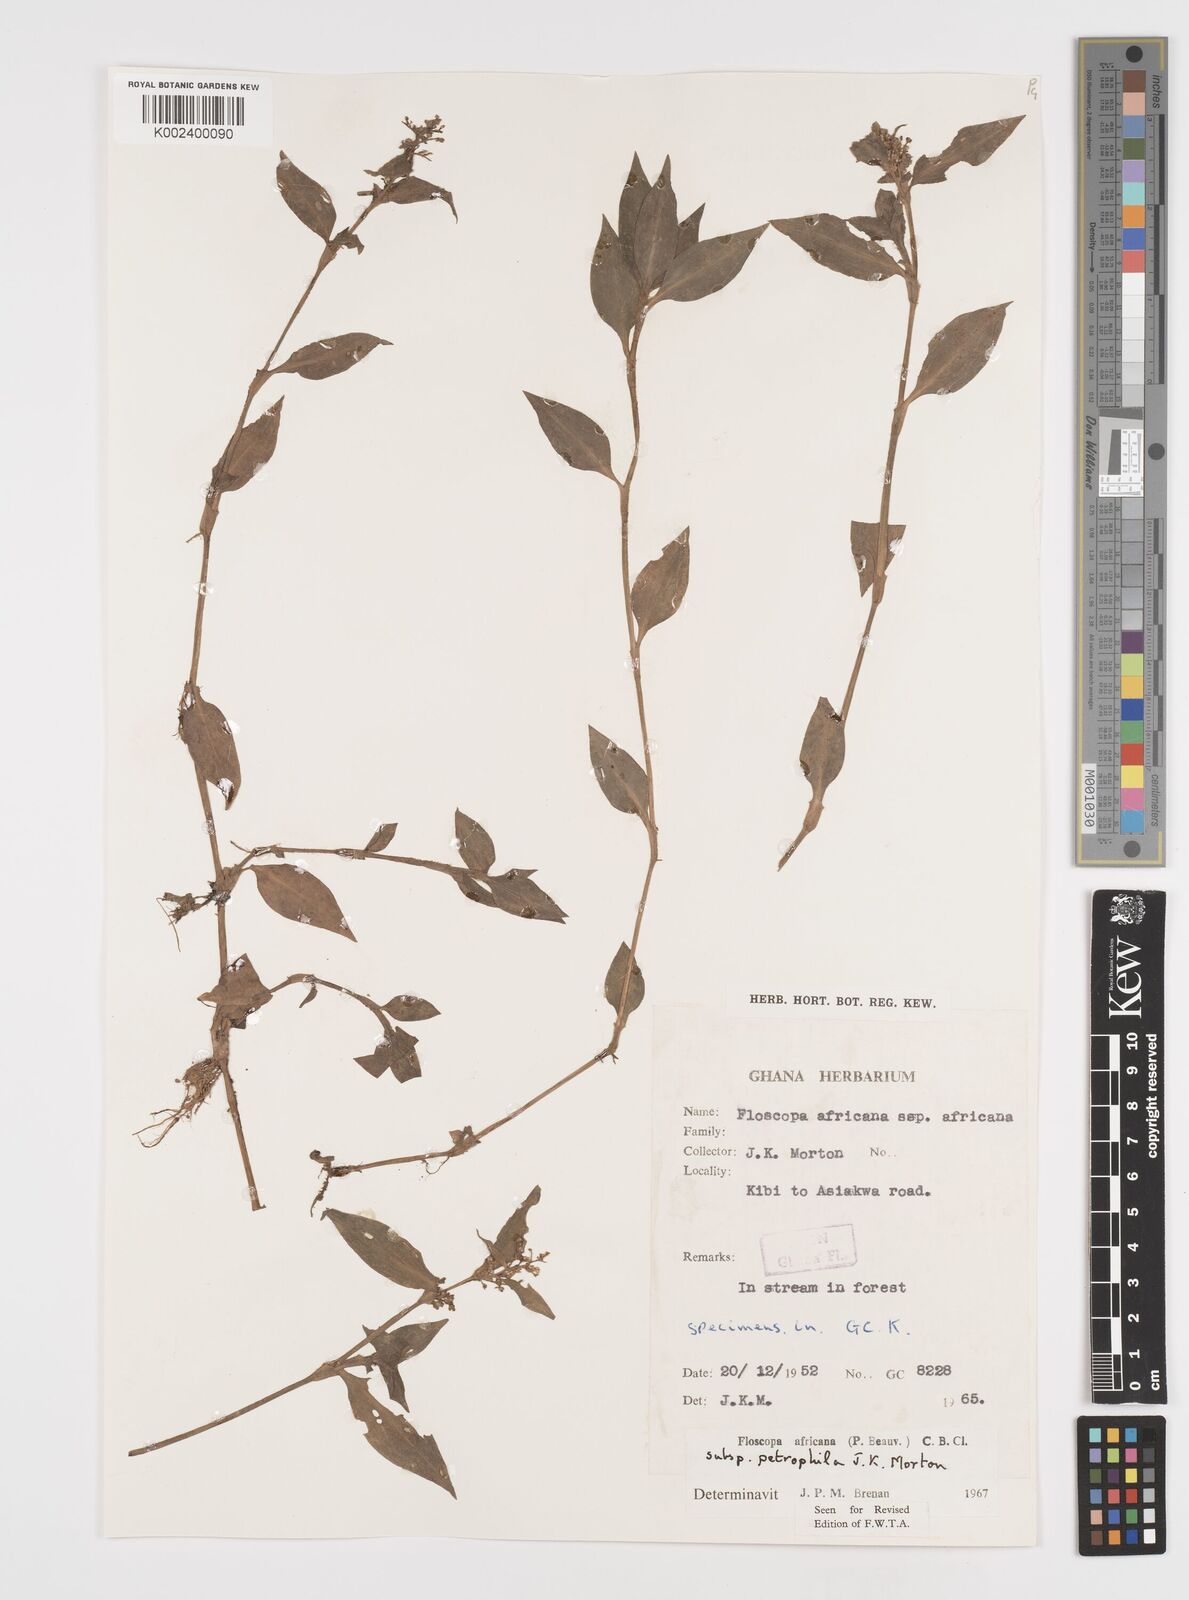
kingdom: Plantae
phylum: Tracheophyta
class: Liliopsida
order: Commelinales
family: Commelinaceae
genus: Floscopa
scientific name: Floscopa africana
